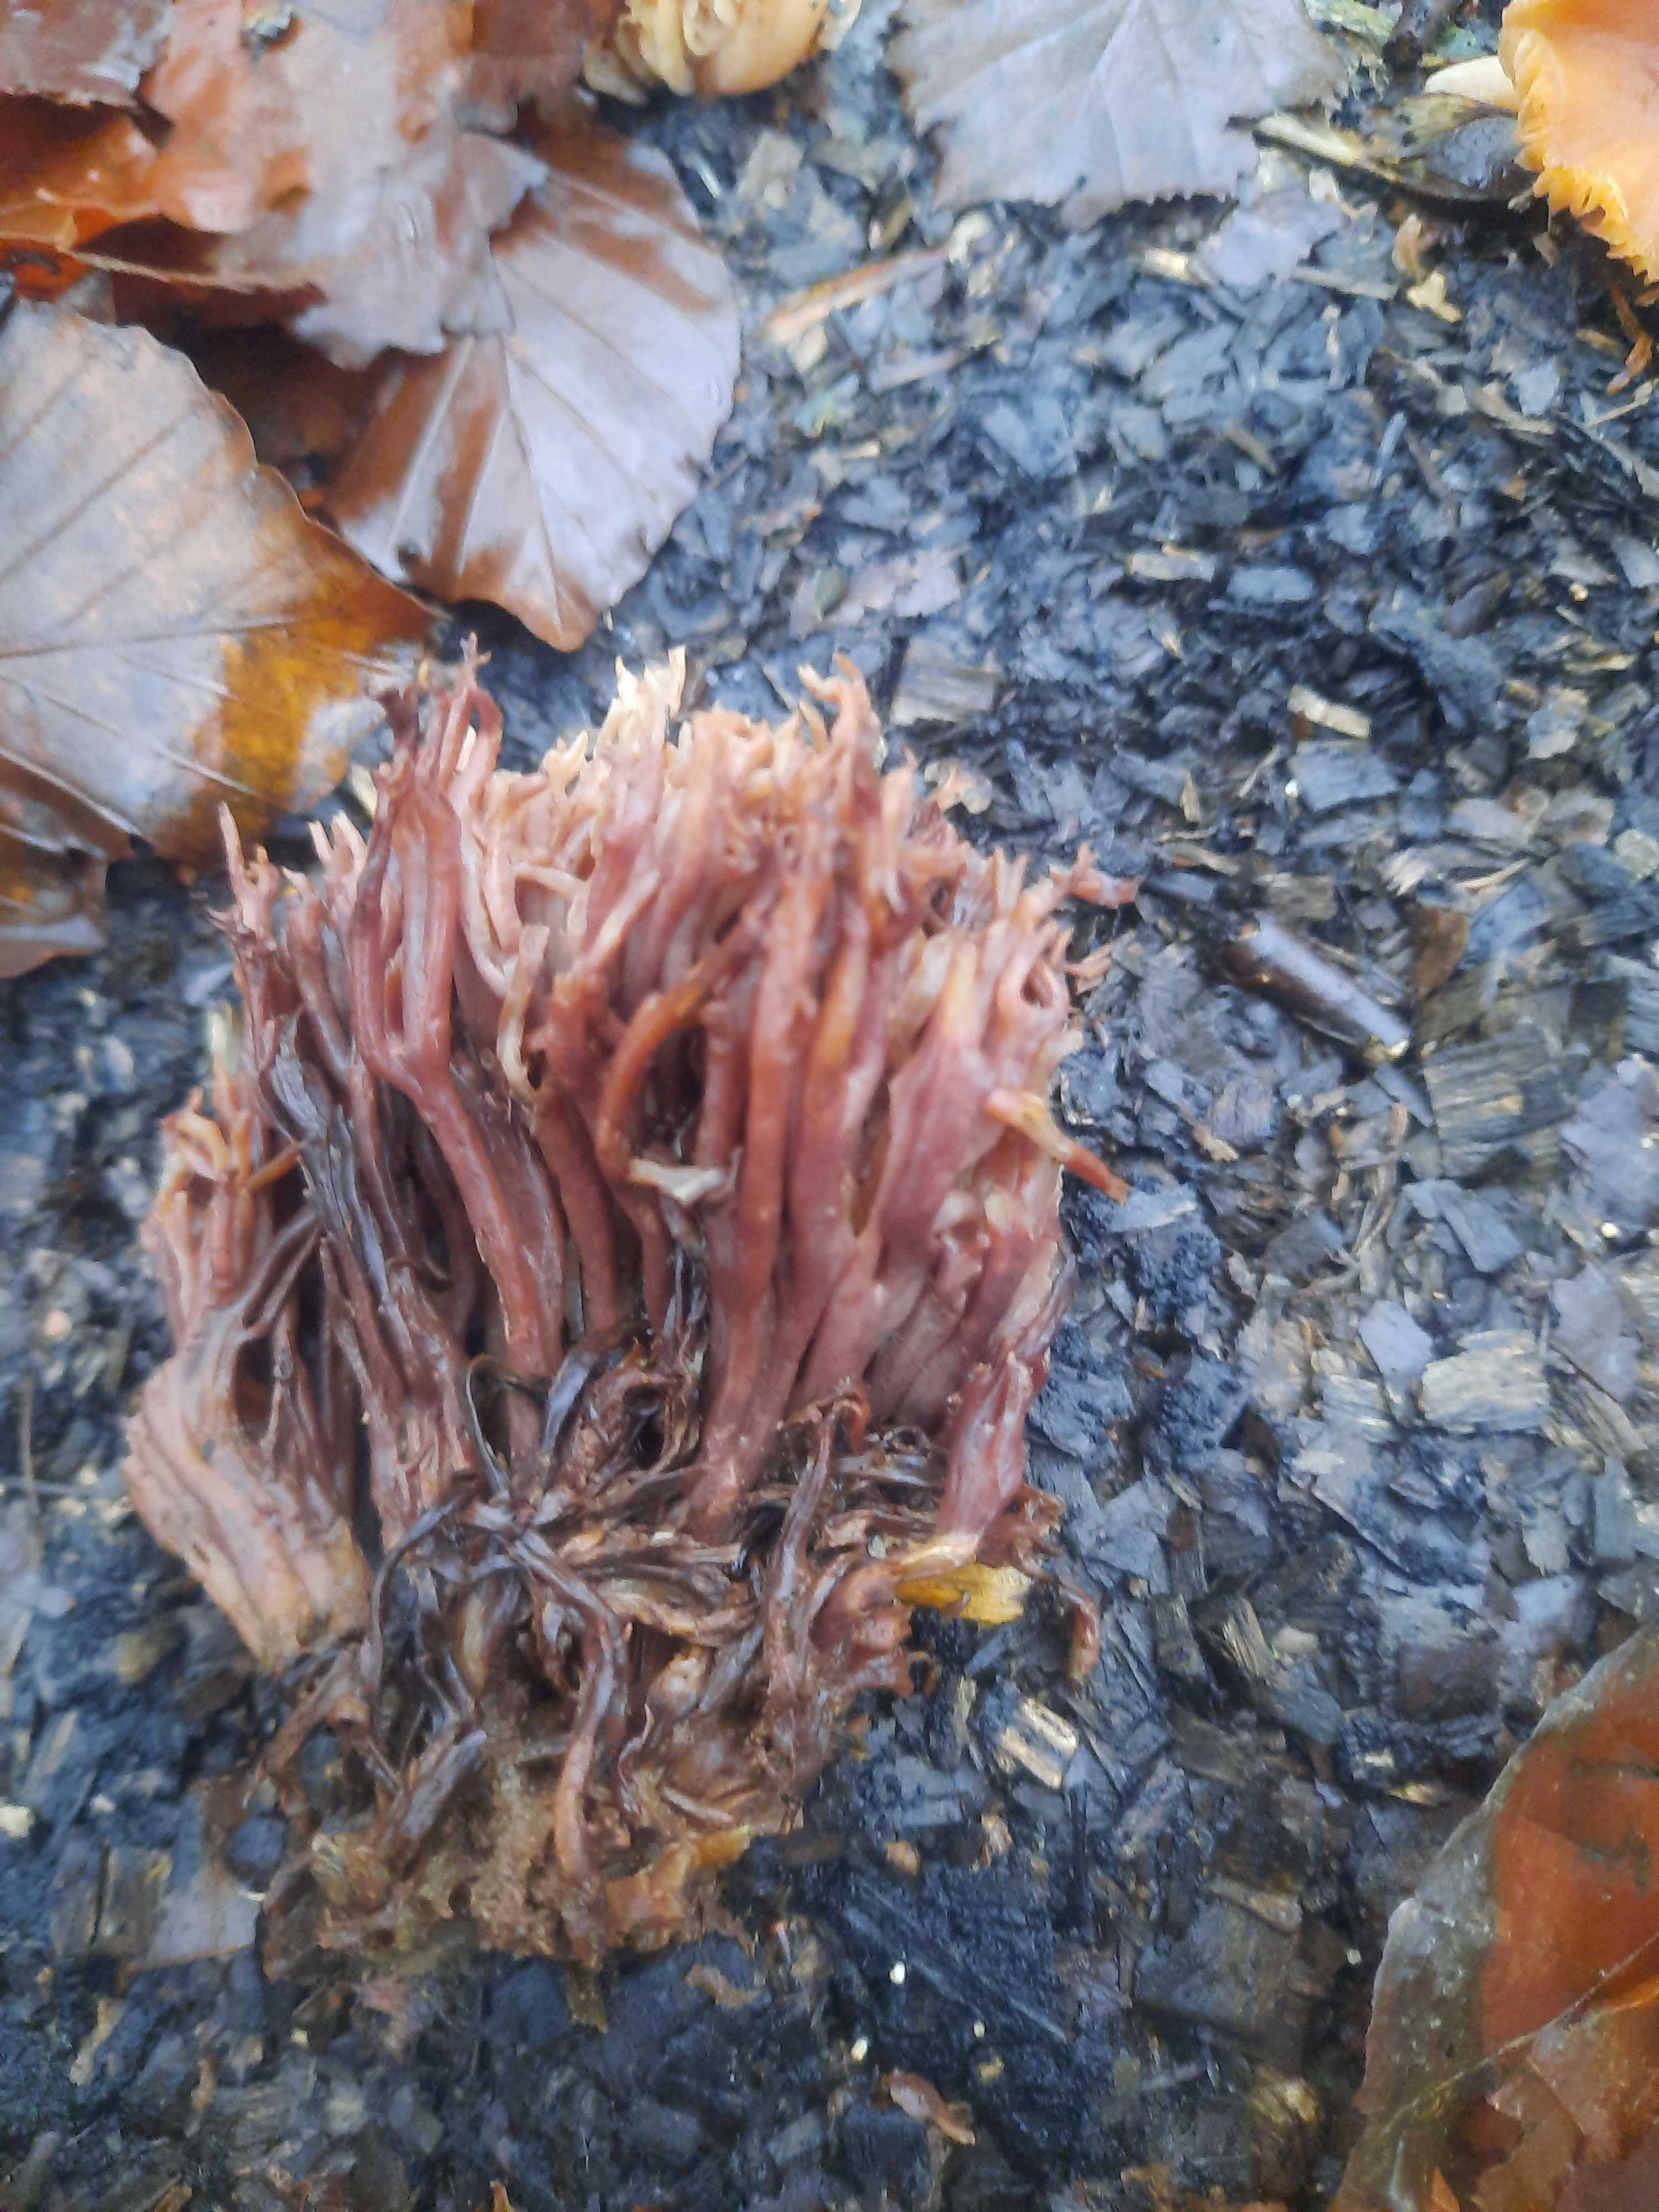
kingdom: Fungi
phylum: Basidiomycota
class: Agaricomycetes
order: Gomphales
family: Gomphaceae
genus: Ramaria
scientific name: Ramaria stricta
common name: rank koralsvamp
